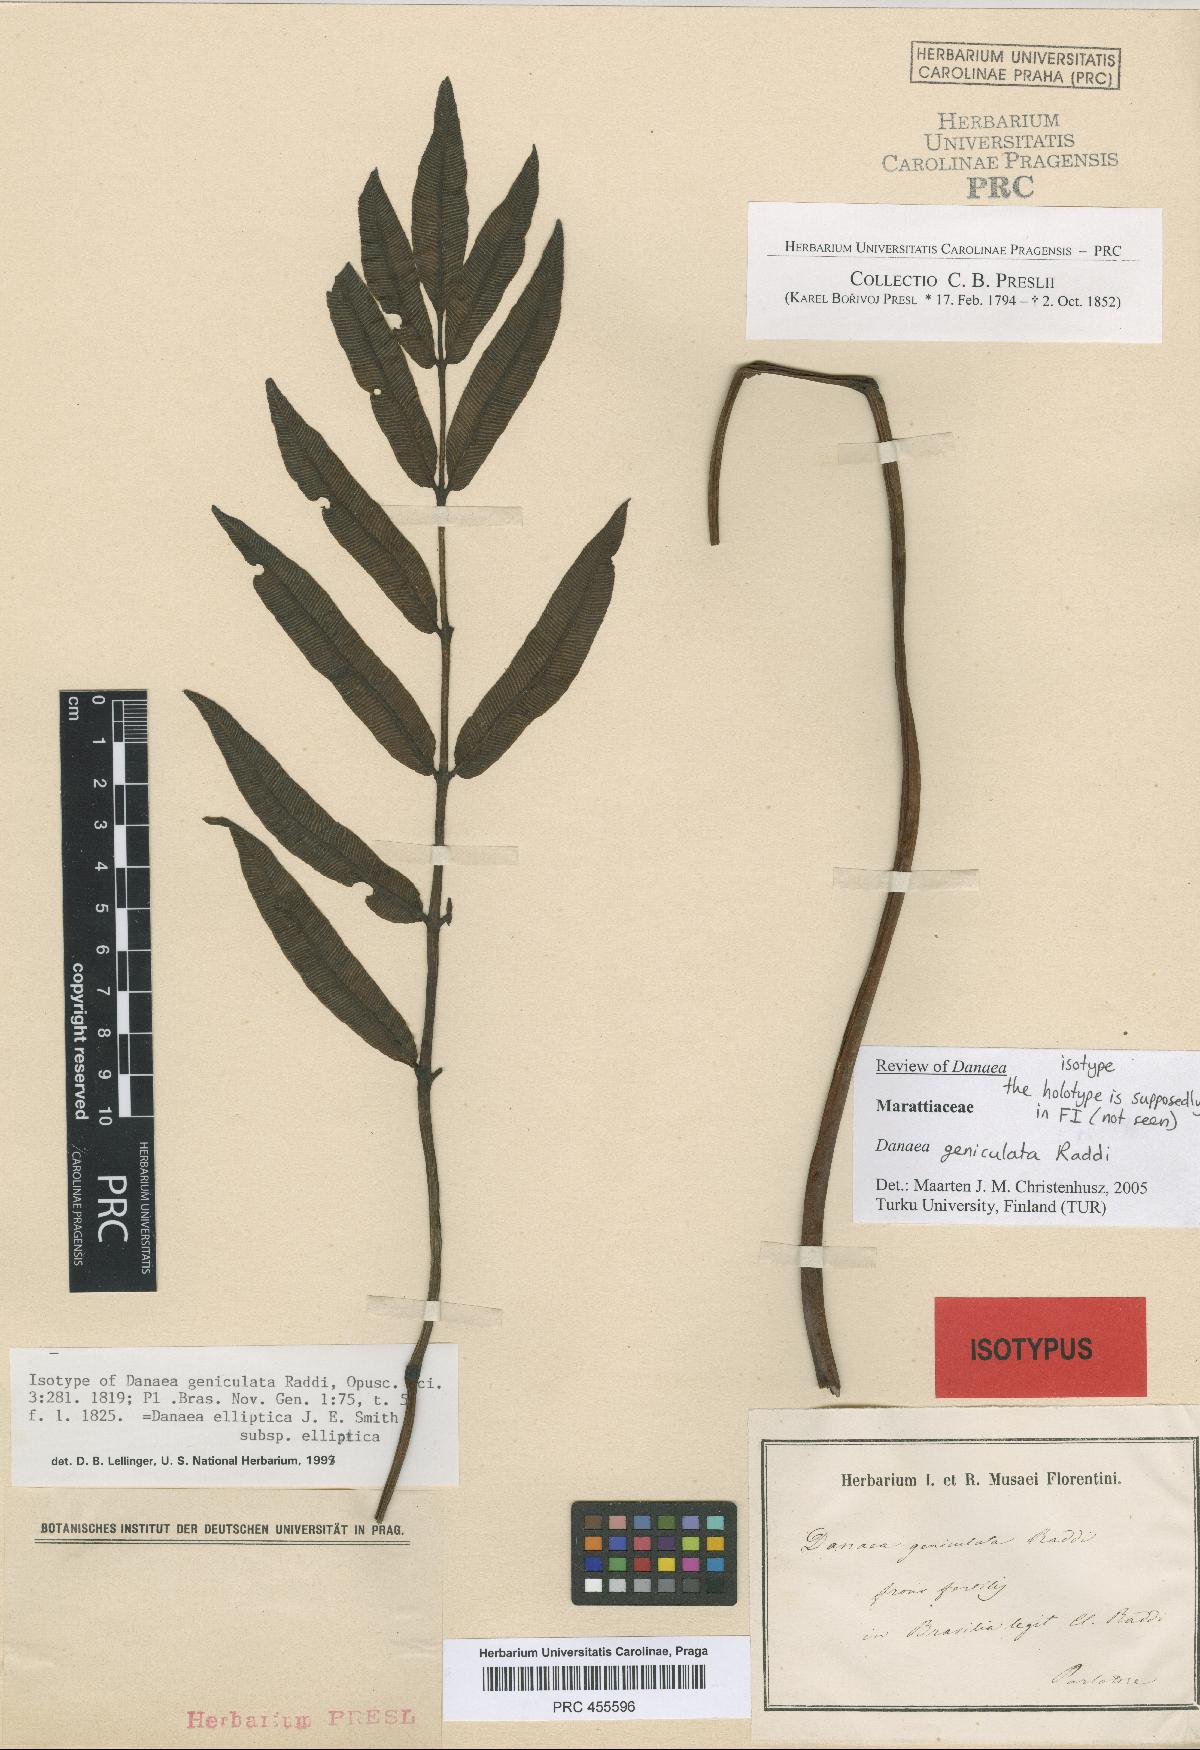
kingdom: Plantae
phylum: Tracheophyta
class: Polypodiopsida
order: Marattiales
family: Marattiaceae
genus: Danaea
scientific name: Danaea geniculata
